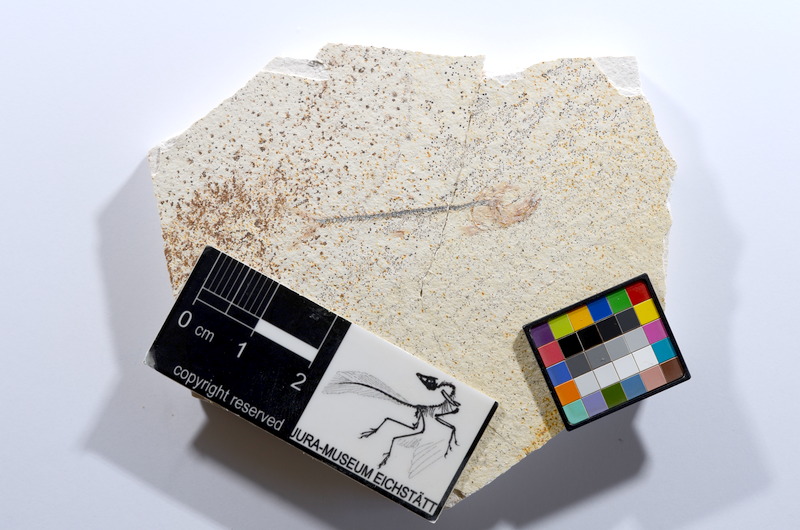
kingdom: Animalia
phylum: Chordata
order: Salmoniformes
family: Orthogonikleithridae
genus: Orthogonikleithrus
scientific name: Orthogonikleithrus hoelli
